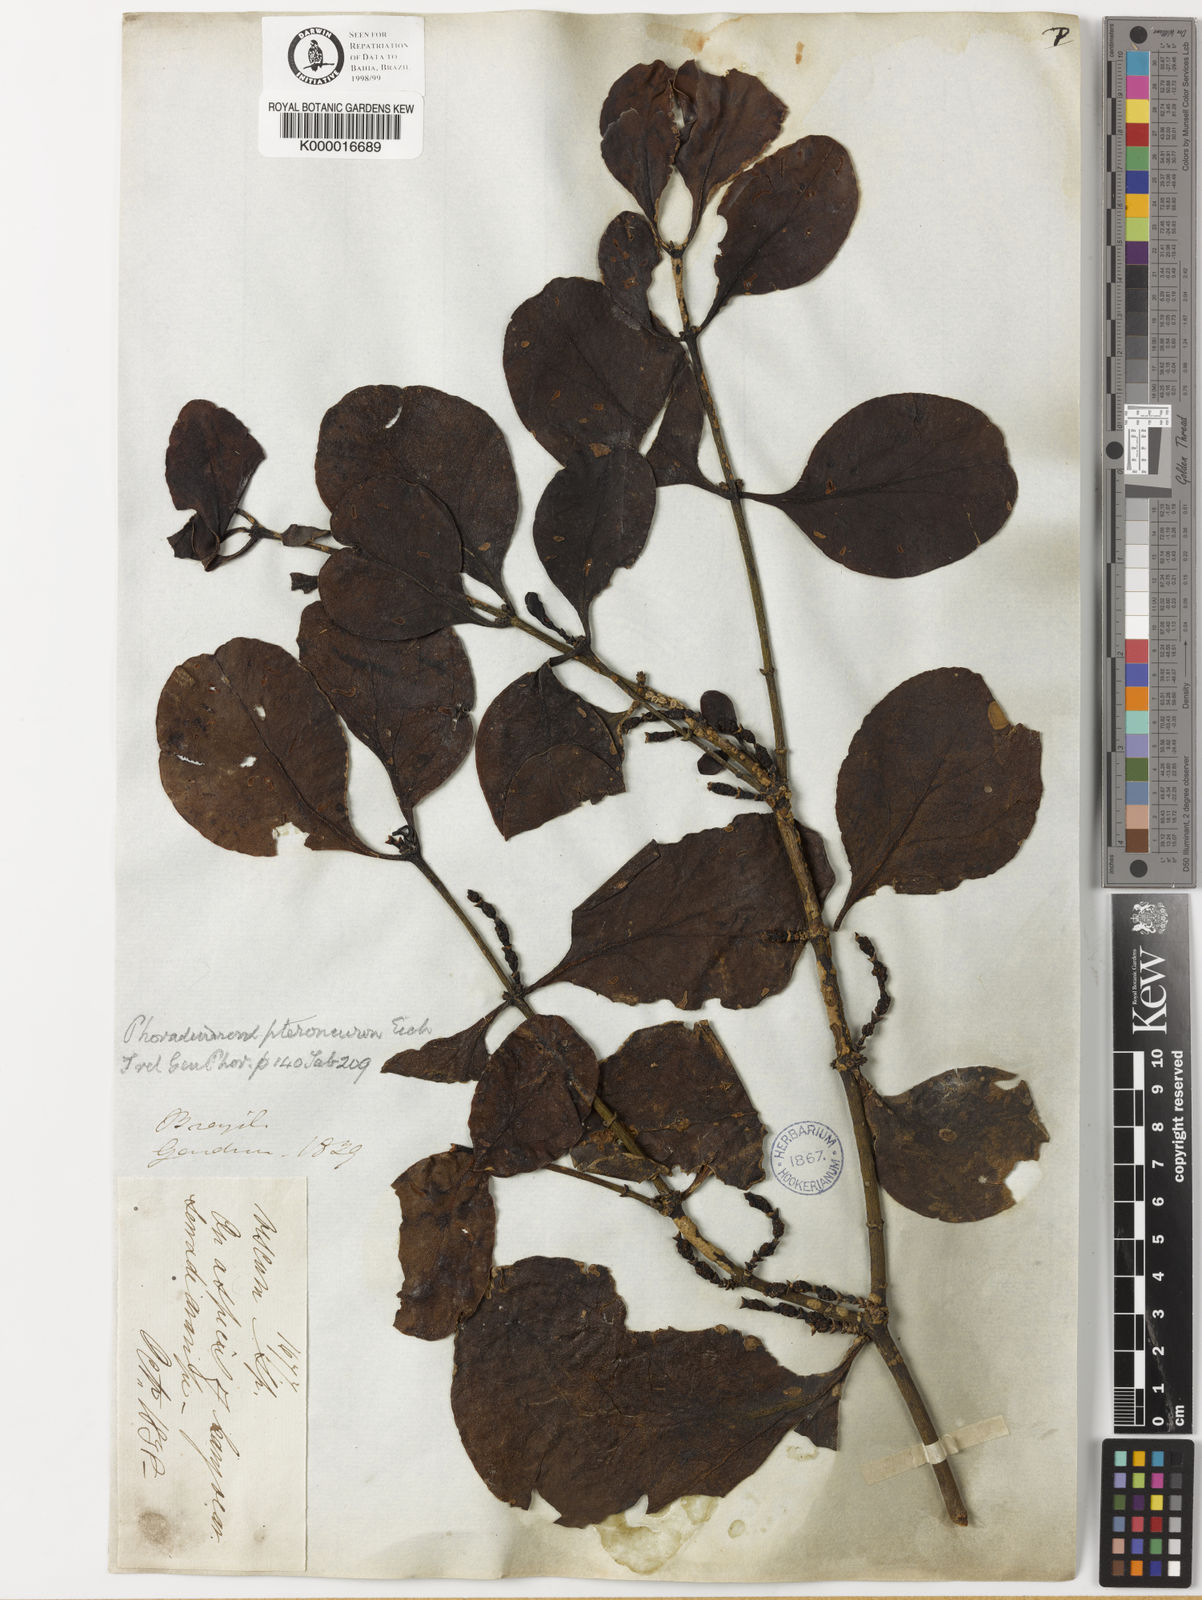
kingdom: Plantae
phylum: Tracheophyta
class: Magnoliopsida
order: Santalales
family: Viscaceae
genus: Phoradendron
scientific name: Phoradendron pteroneuron
